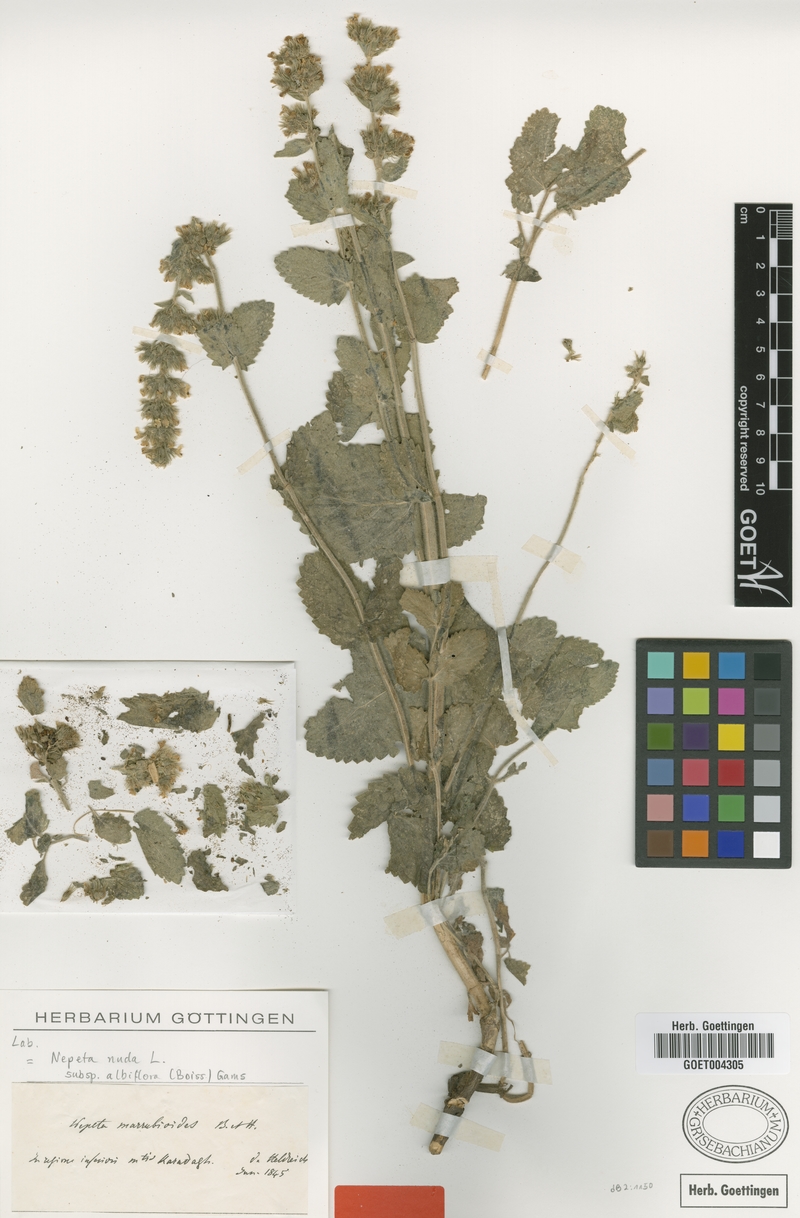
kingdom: Plantae
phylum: Tracheophyta
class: Magnoliopsida
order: Lamiales
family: Lamiaceae
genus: Nepeta
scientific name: Nepeta nuda
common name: Hairless catmint
